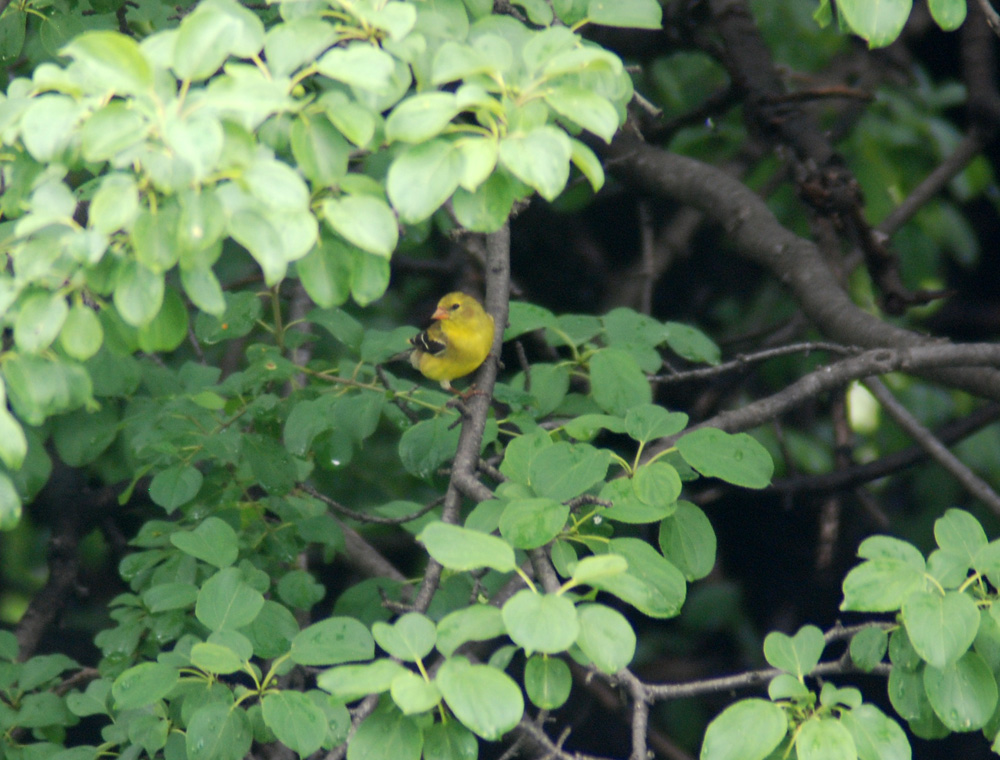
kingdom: Animalia
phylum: Chordata
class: Aves
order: Passeriformes
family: Fringillidae
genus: Spinus
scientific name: Spinus tristis
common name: American goldfinch
